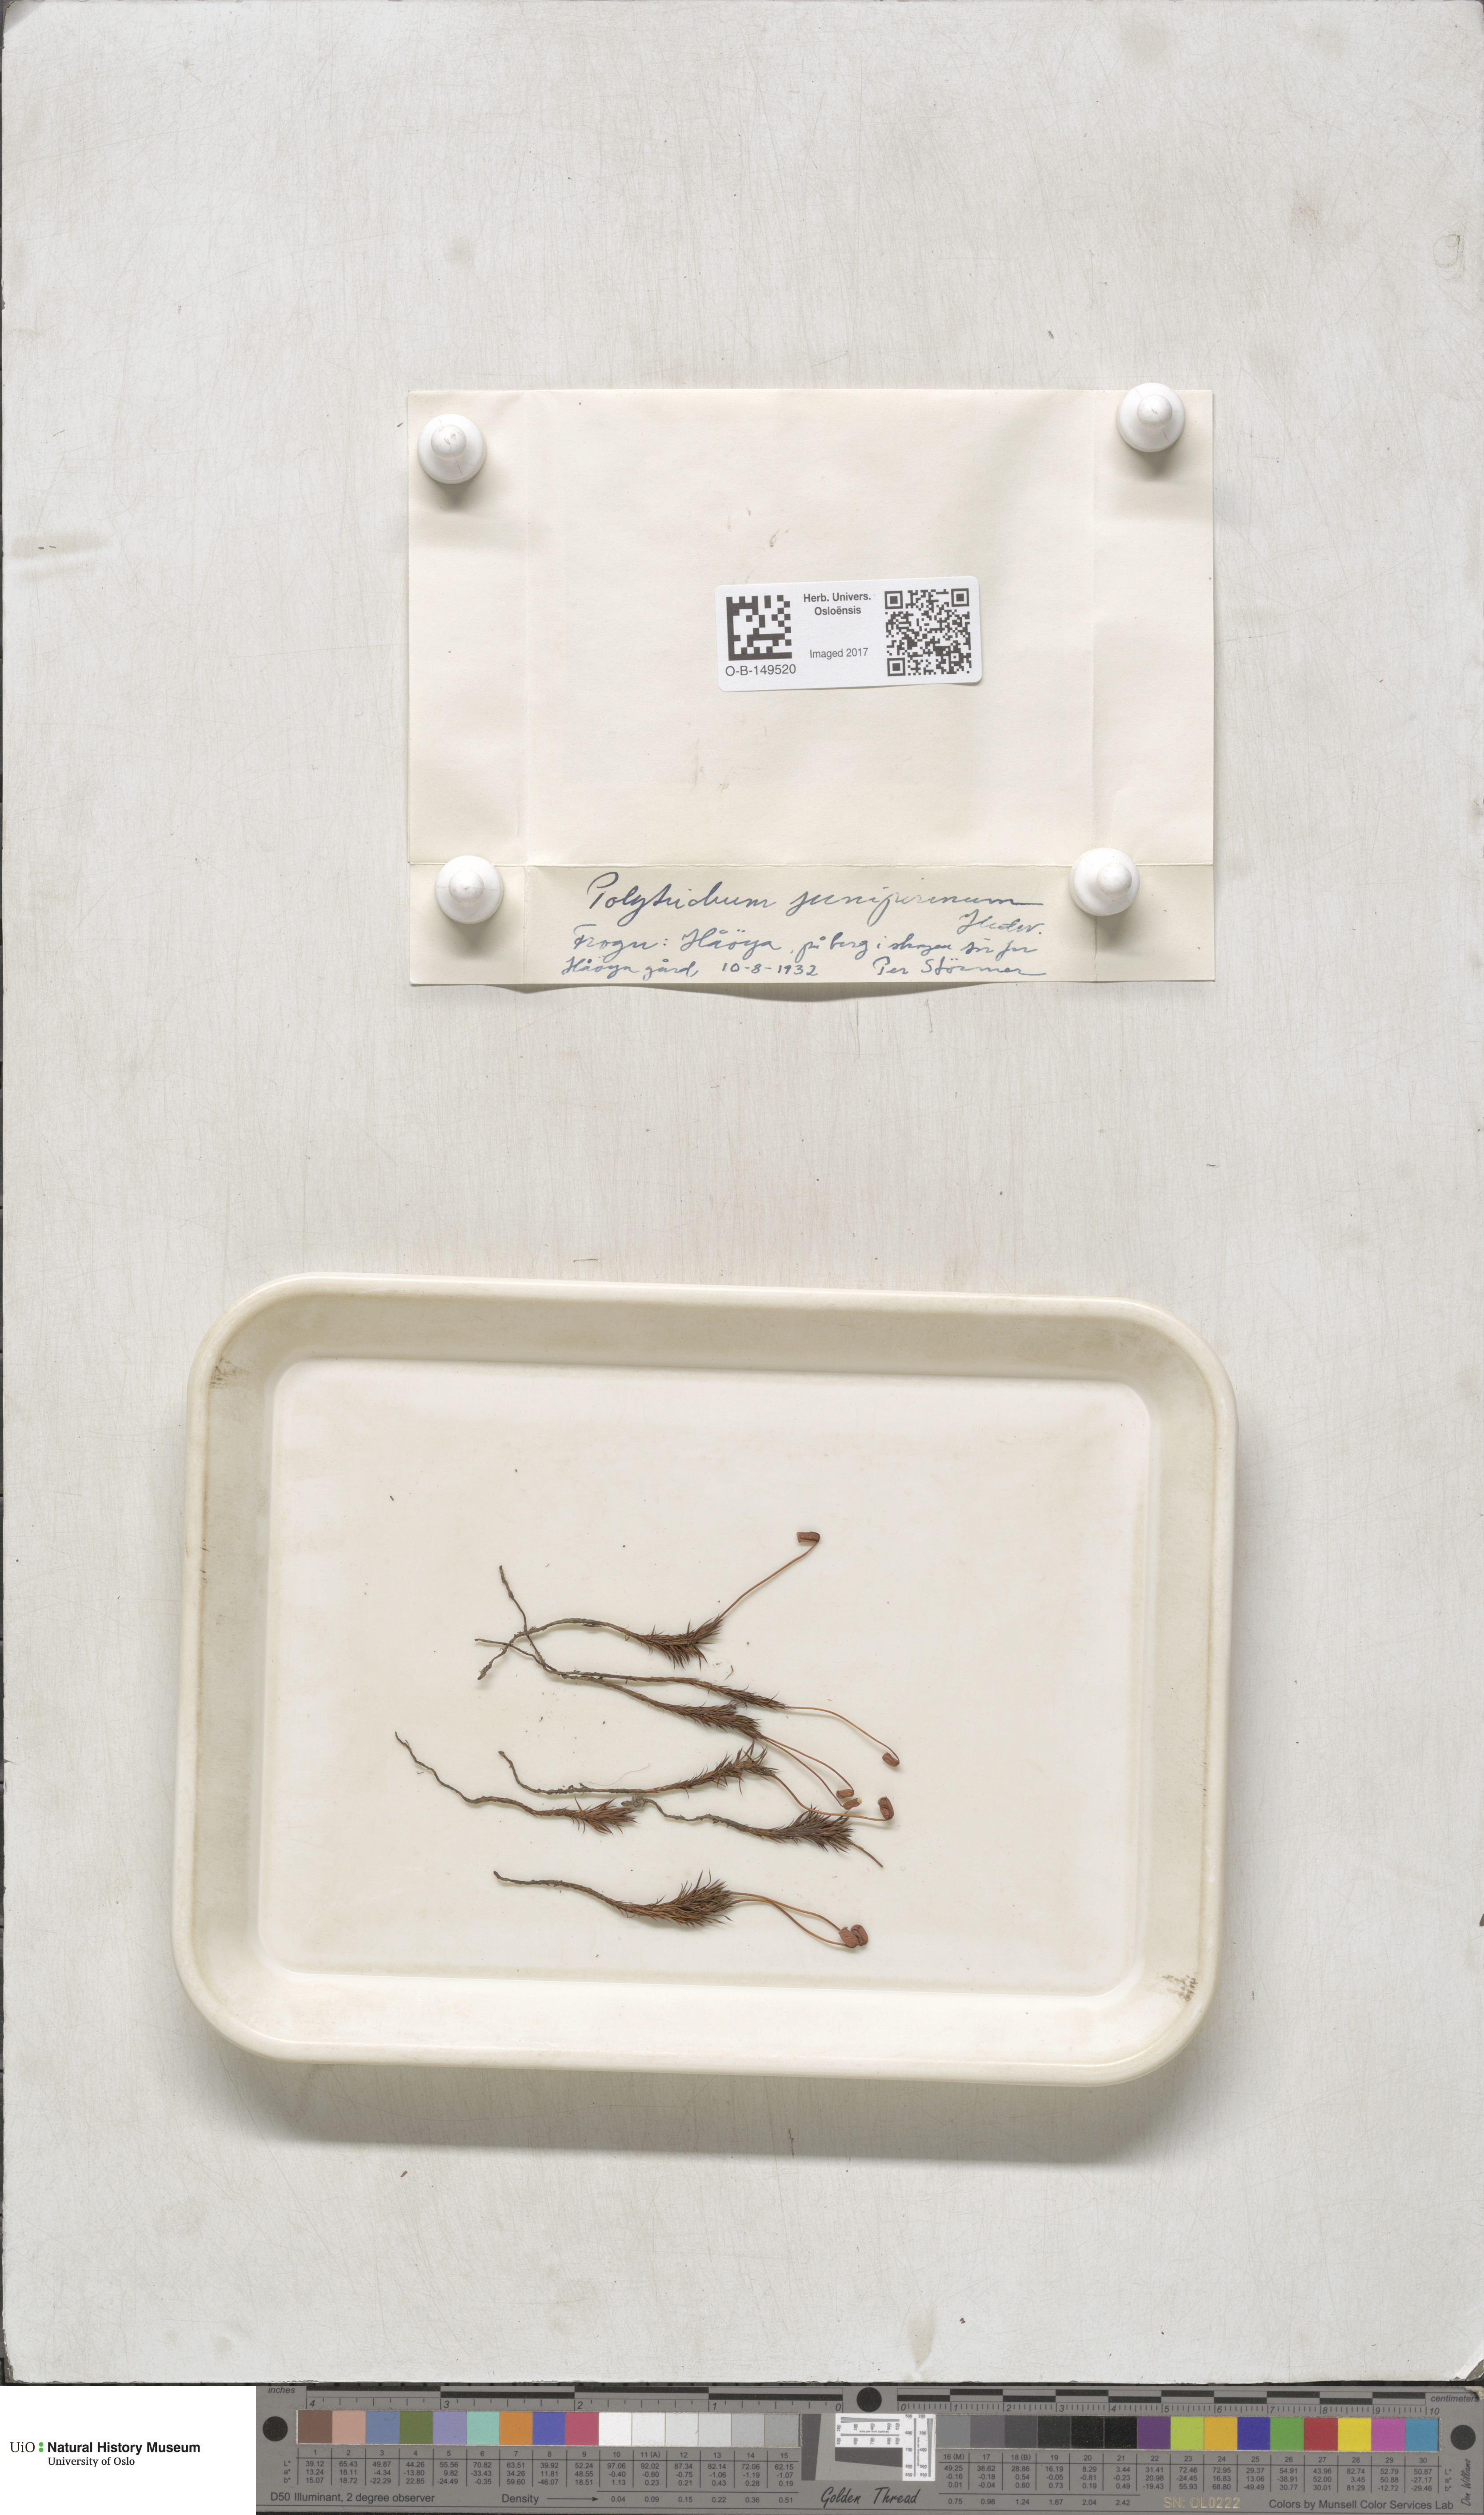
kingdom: Plantae
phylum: Bryophyta
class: Polytrichopsida
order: Polytrichales
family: Polytrichaceae
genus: Polytrichum
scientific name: Polytrichum juniperinum
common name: Juniper haircap moss
